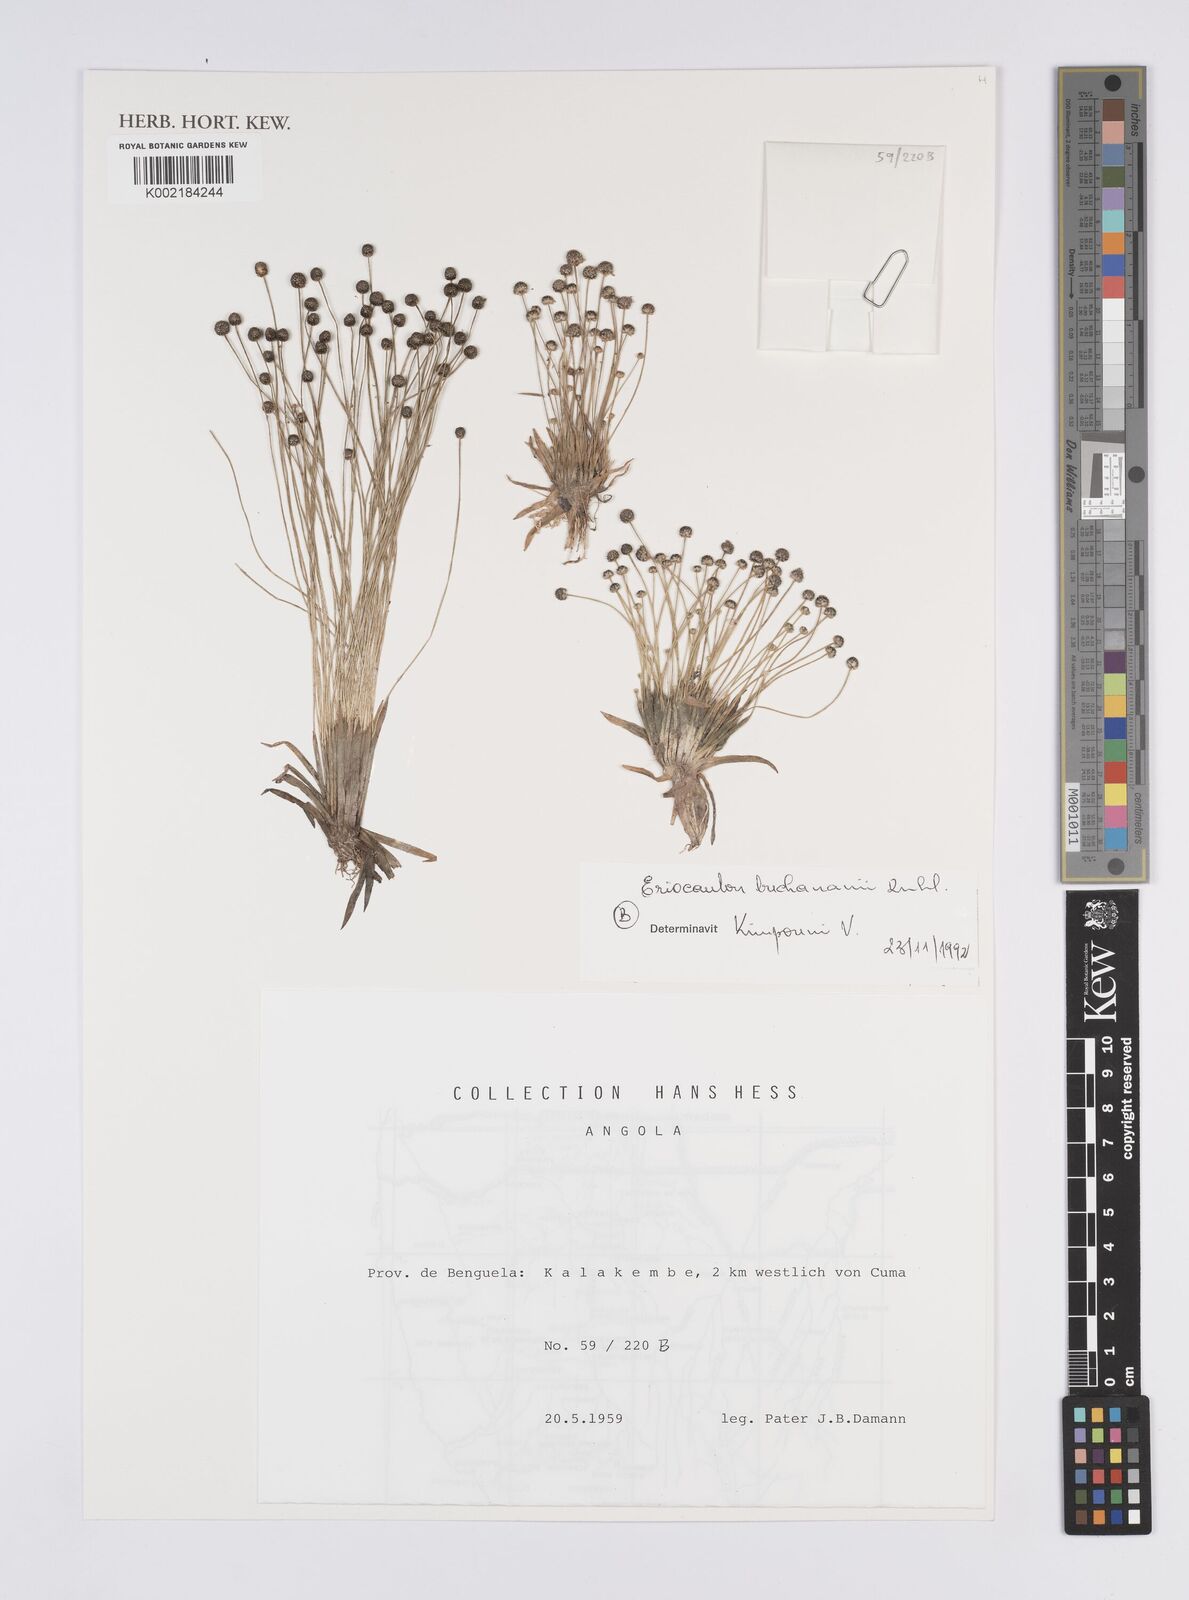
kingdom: Plantae
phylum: Tracheophyta
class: Liliopsida
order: Poales
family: Eriocaulaceae
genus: Eriocaulon
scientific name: Eriocaulon buchananii
